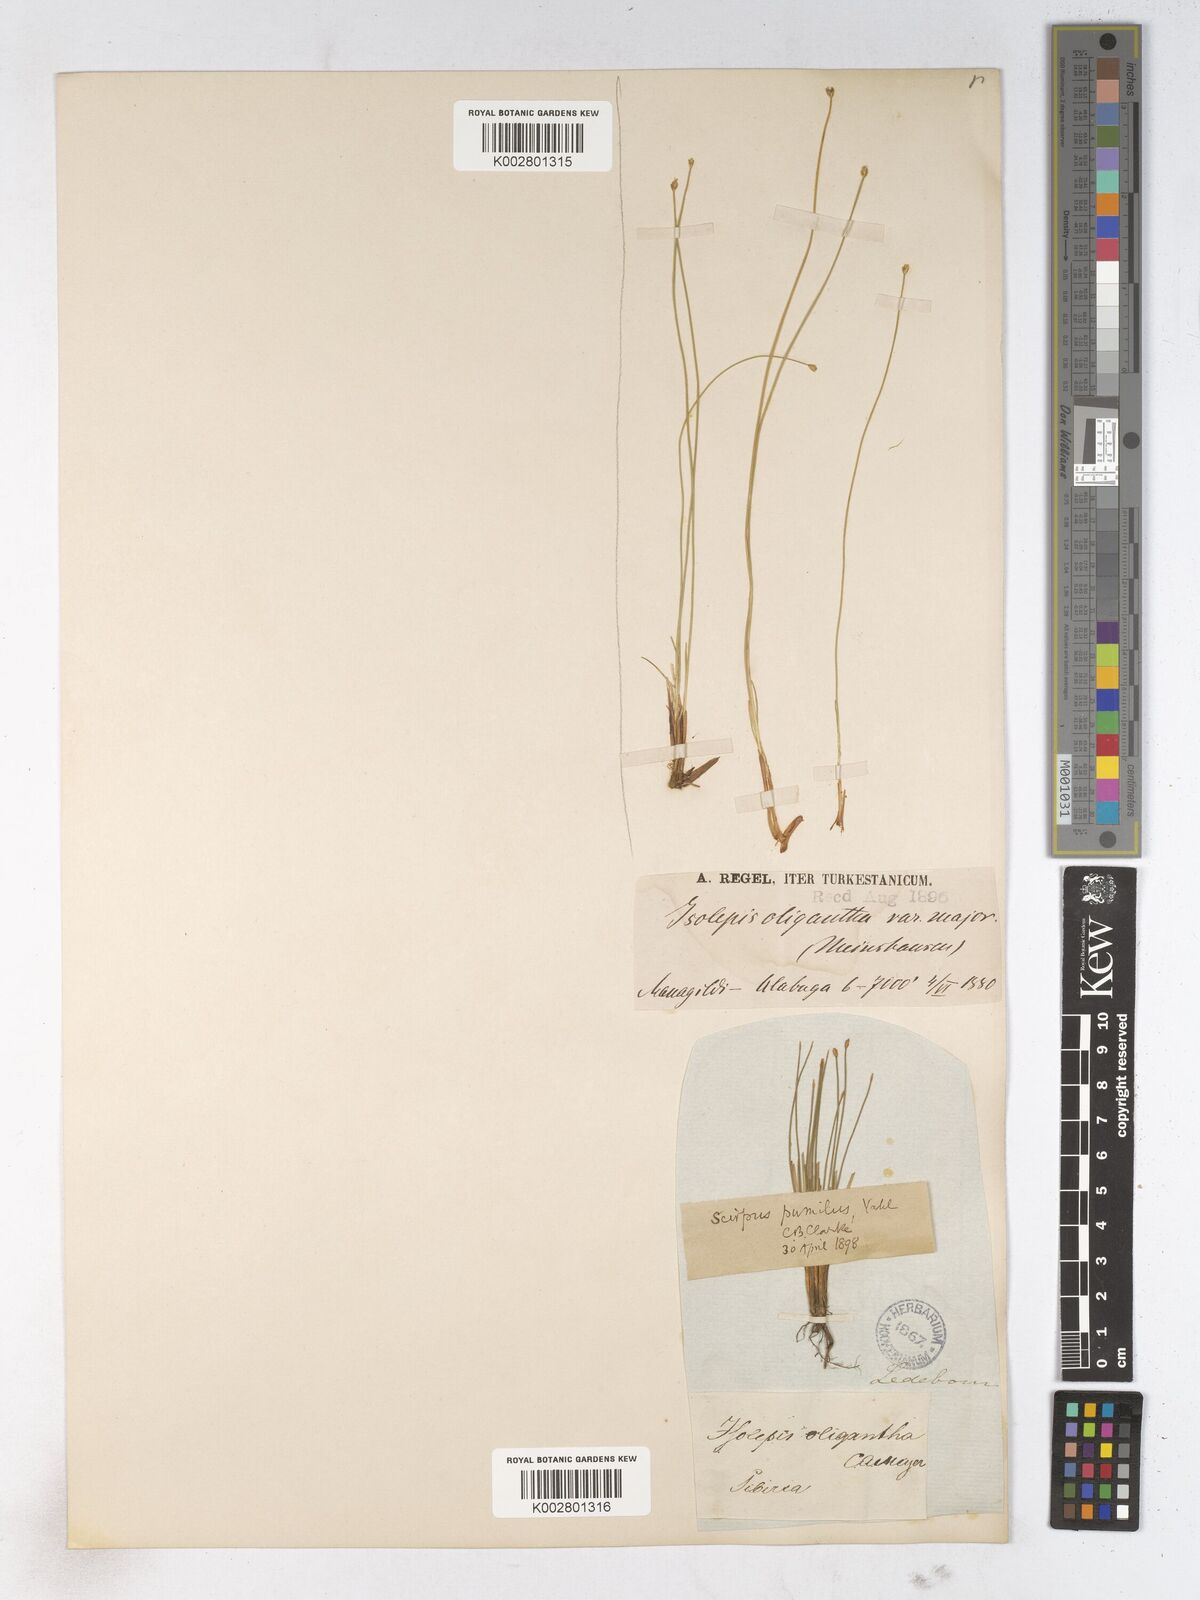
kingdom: Plantae
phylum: Tracheophyta
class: Liliopsida
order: Poales
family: Cyperaceae
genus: Trichophorum
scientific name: Trichophorum pumilum
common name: Rolland's bulrush
